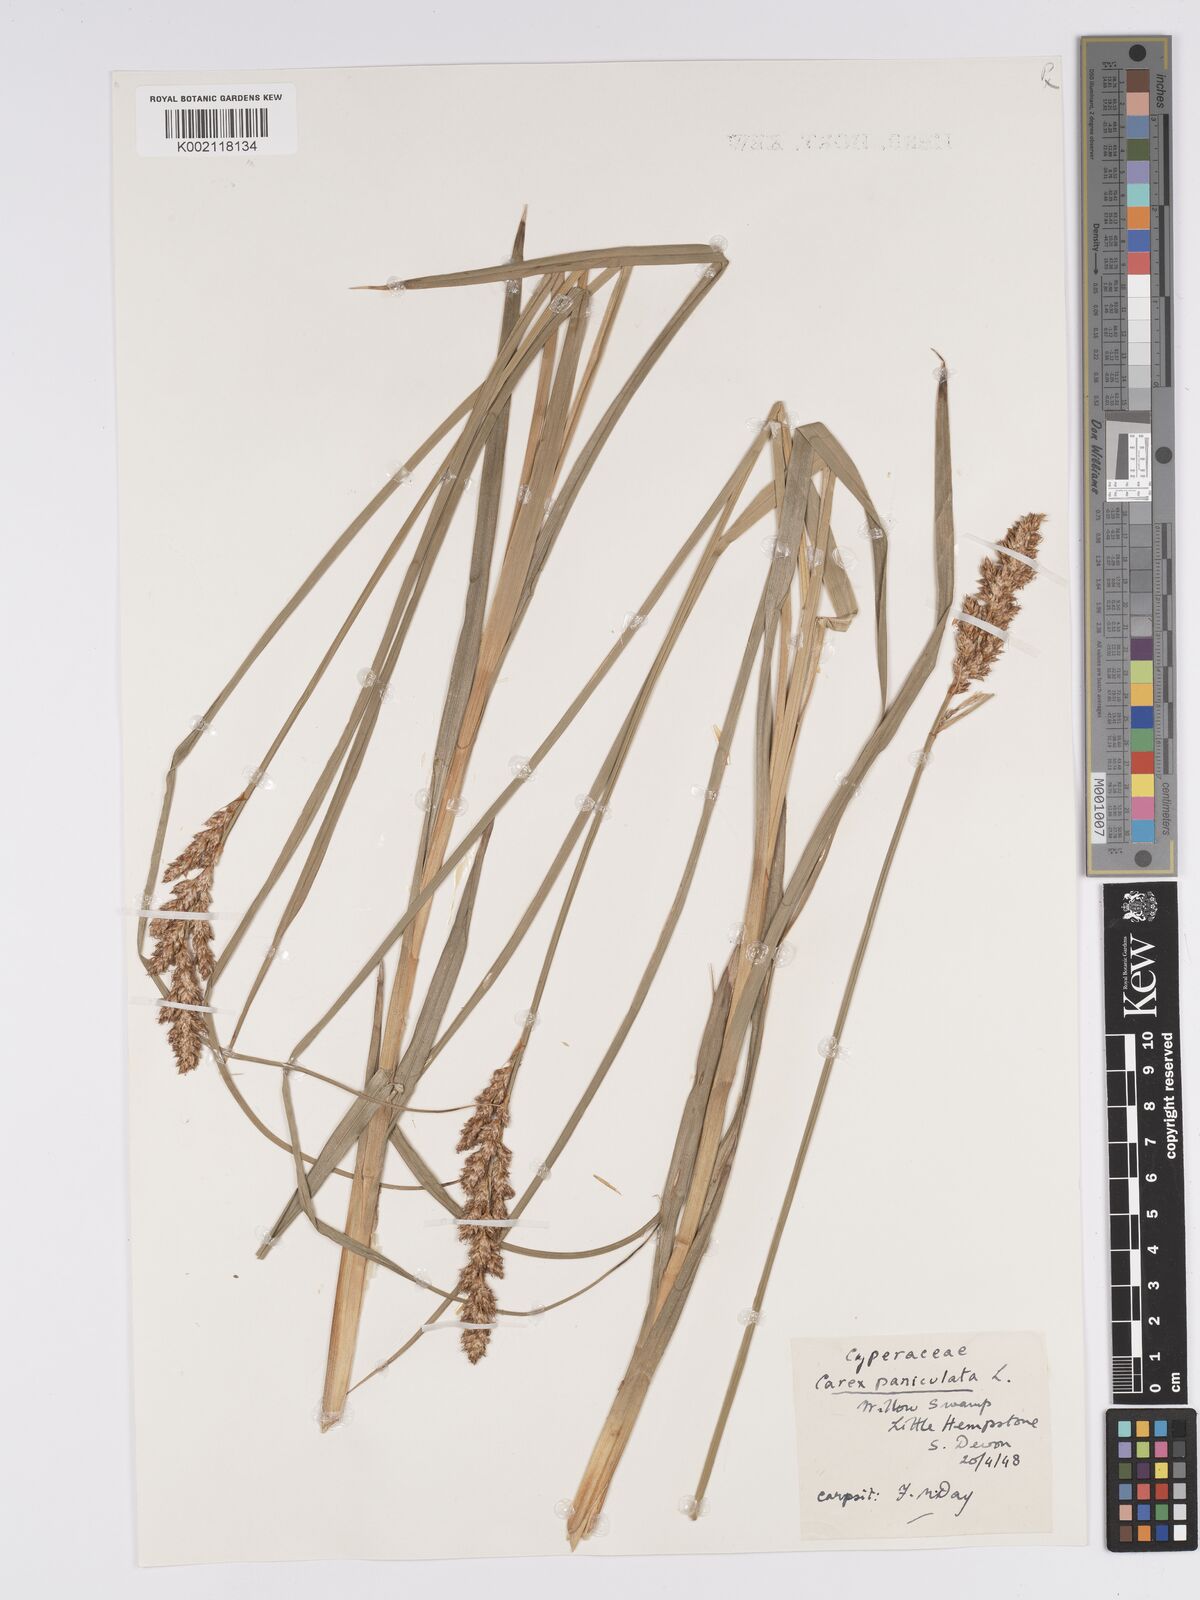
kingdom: Plantae
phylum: Tracheophyta
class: Liliopsida
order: Poales
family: Cyperaceae
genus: Carex
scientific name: Carex paniculata
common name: Greater tussock-sedge
